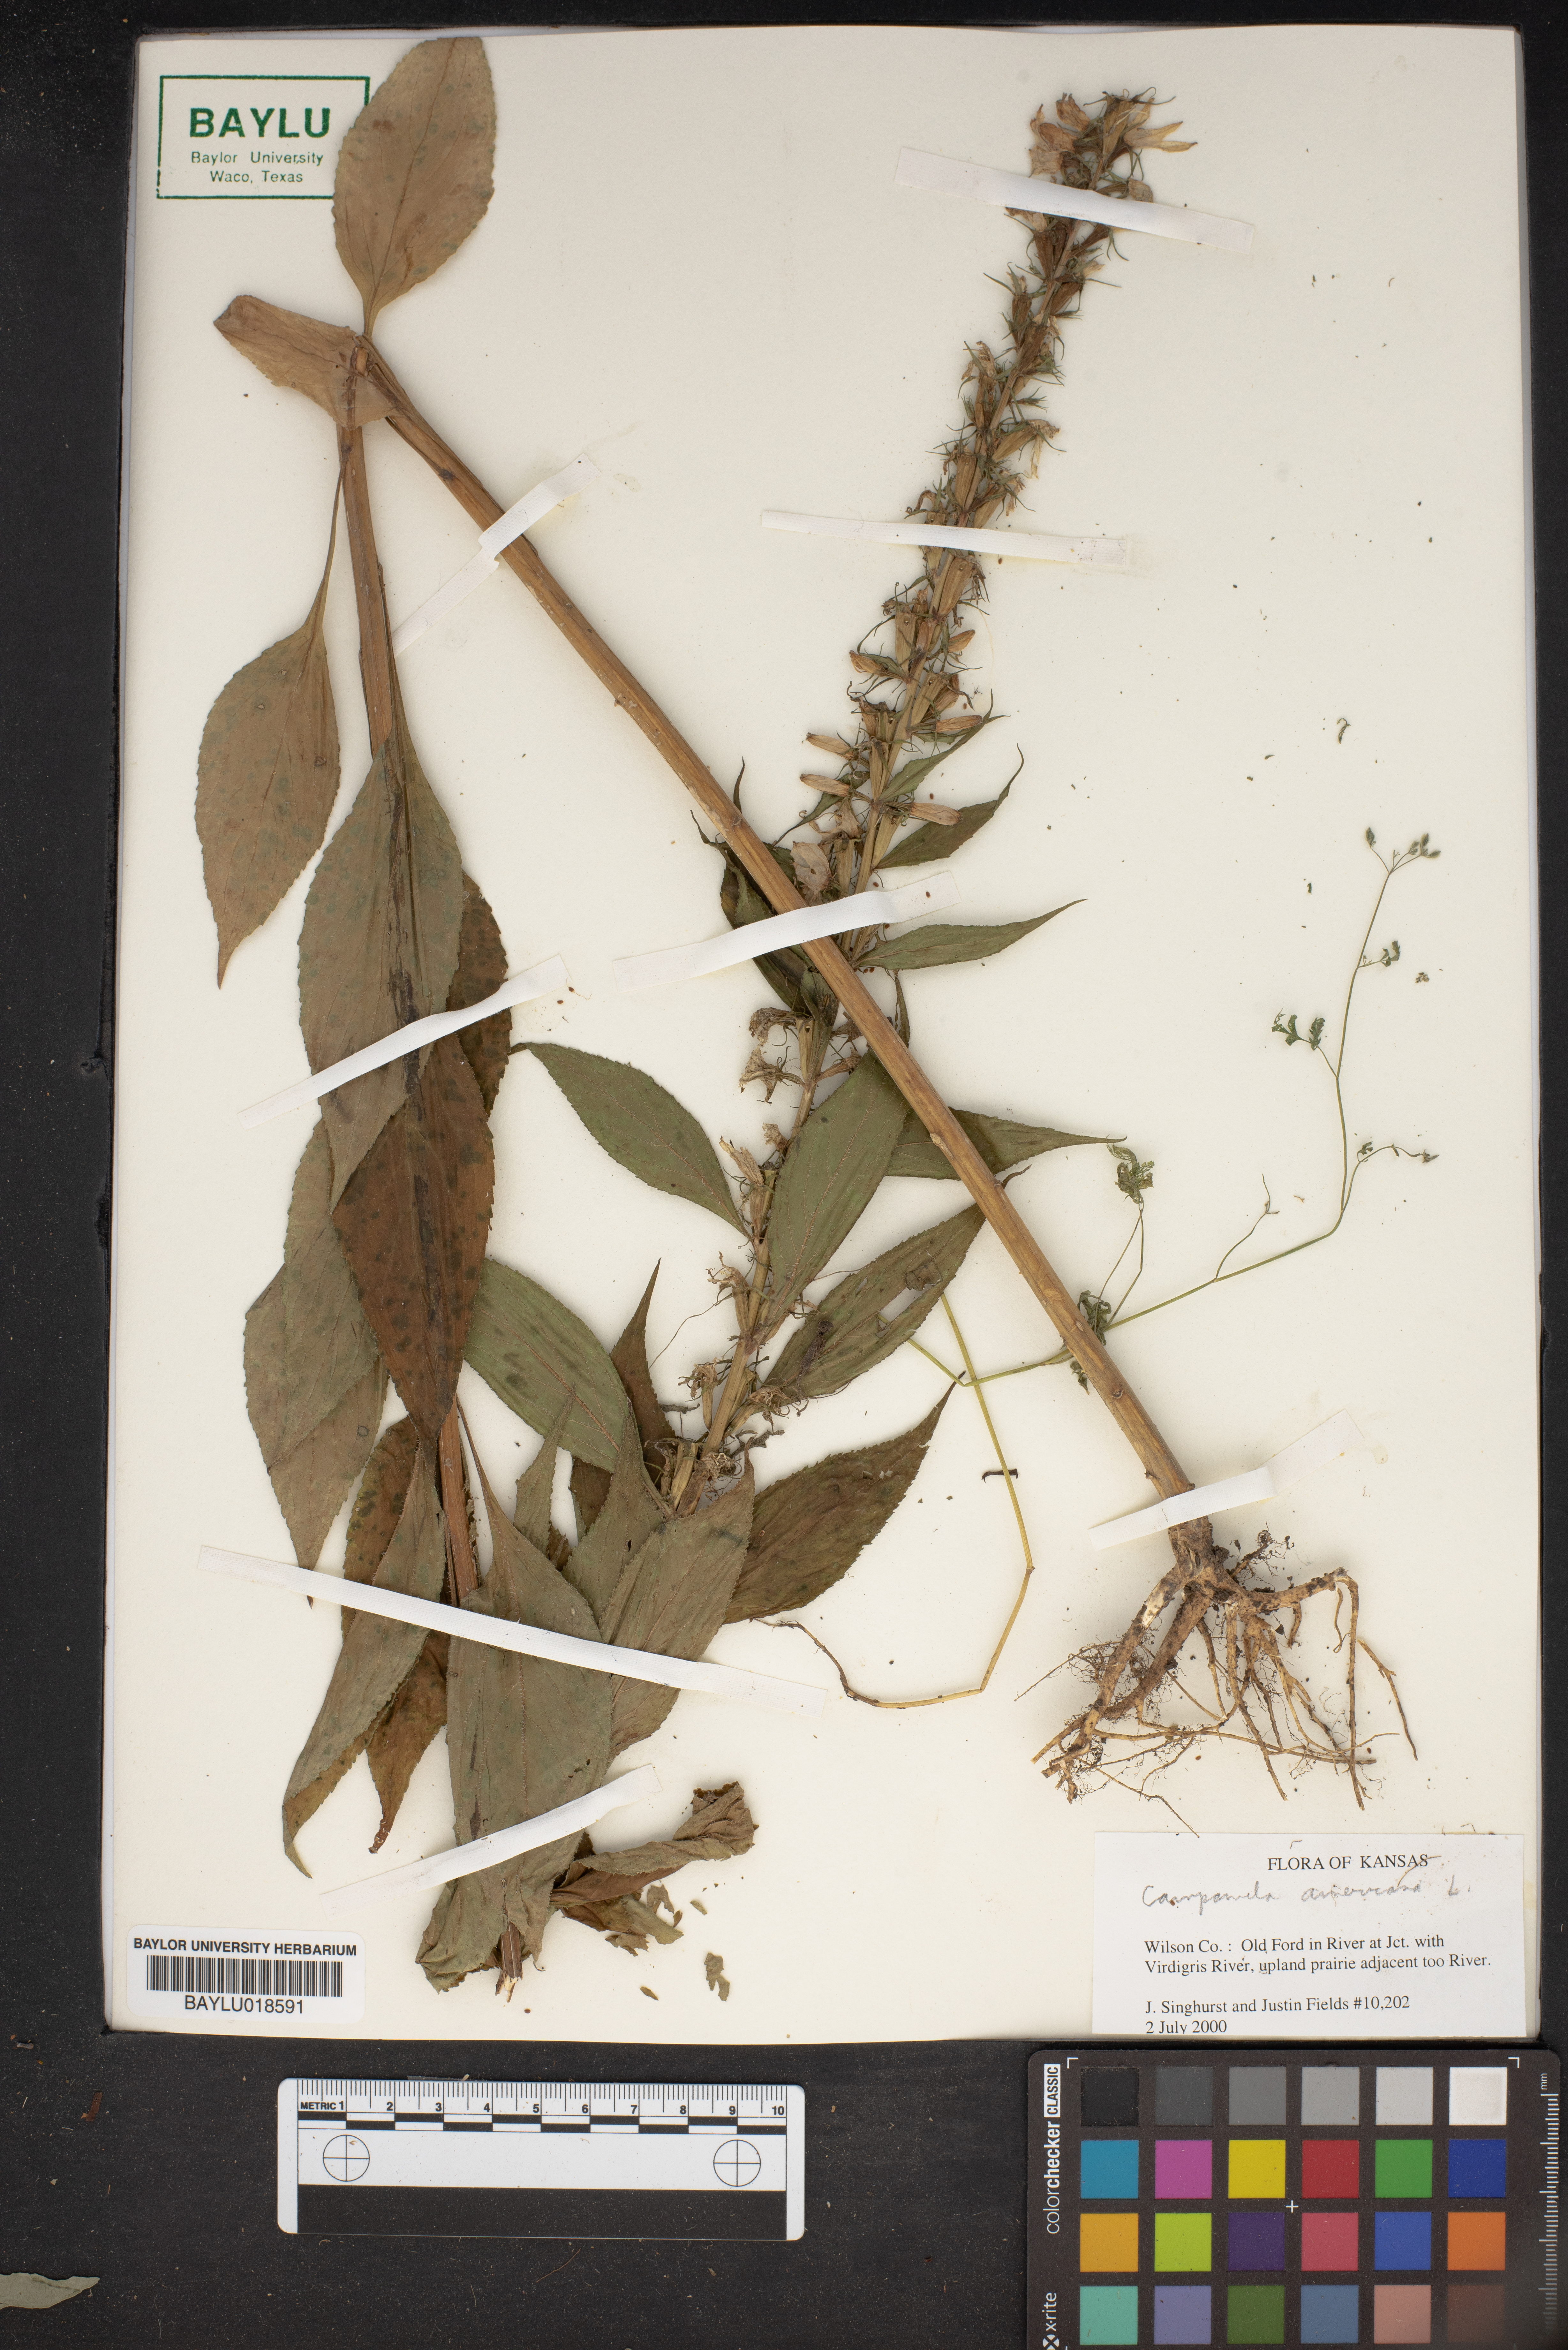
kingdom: Plantae
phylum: Tracheophyta
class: Magnoliopsida
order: Asterales
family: Campanulaceae
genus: Campanula
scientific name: Campanula americana
